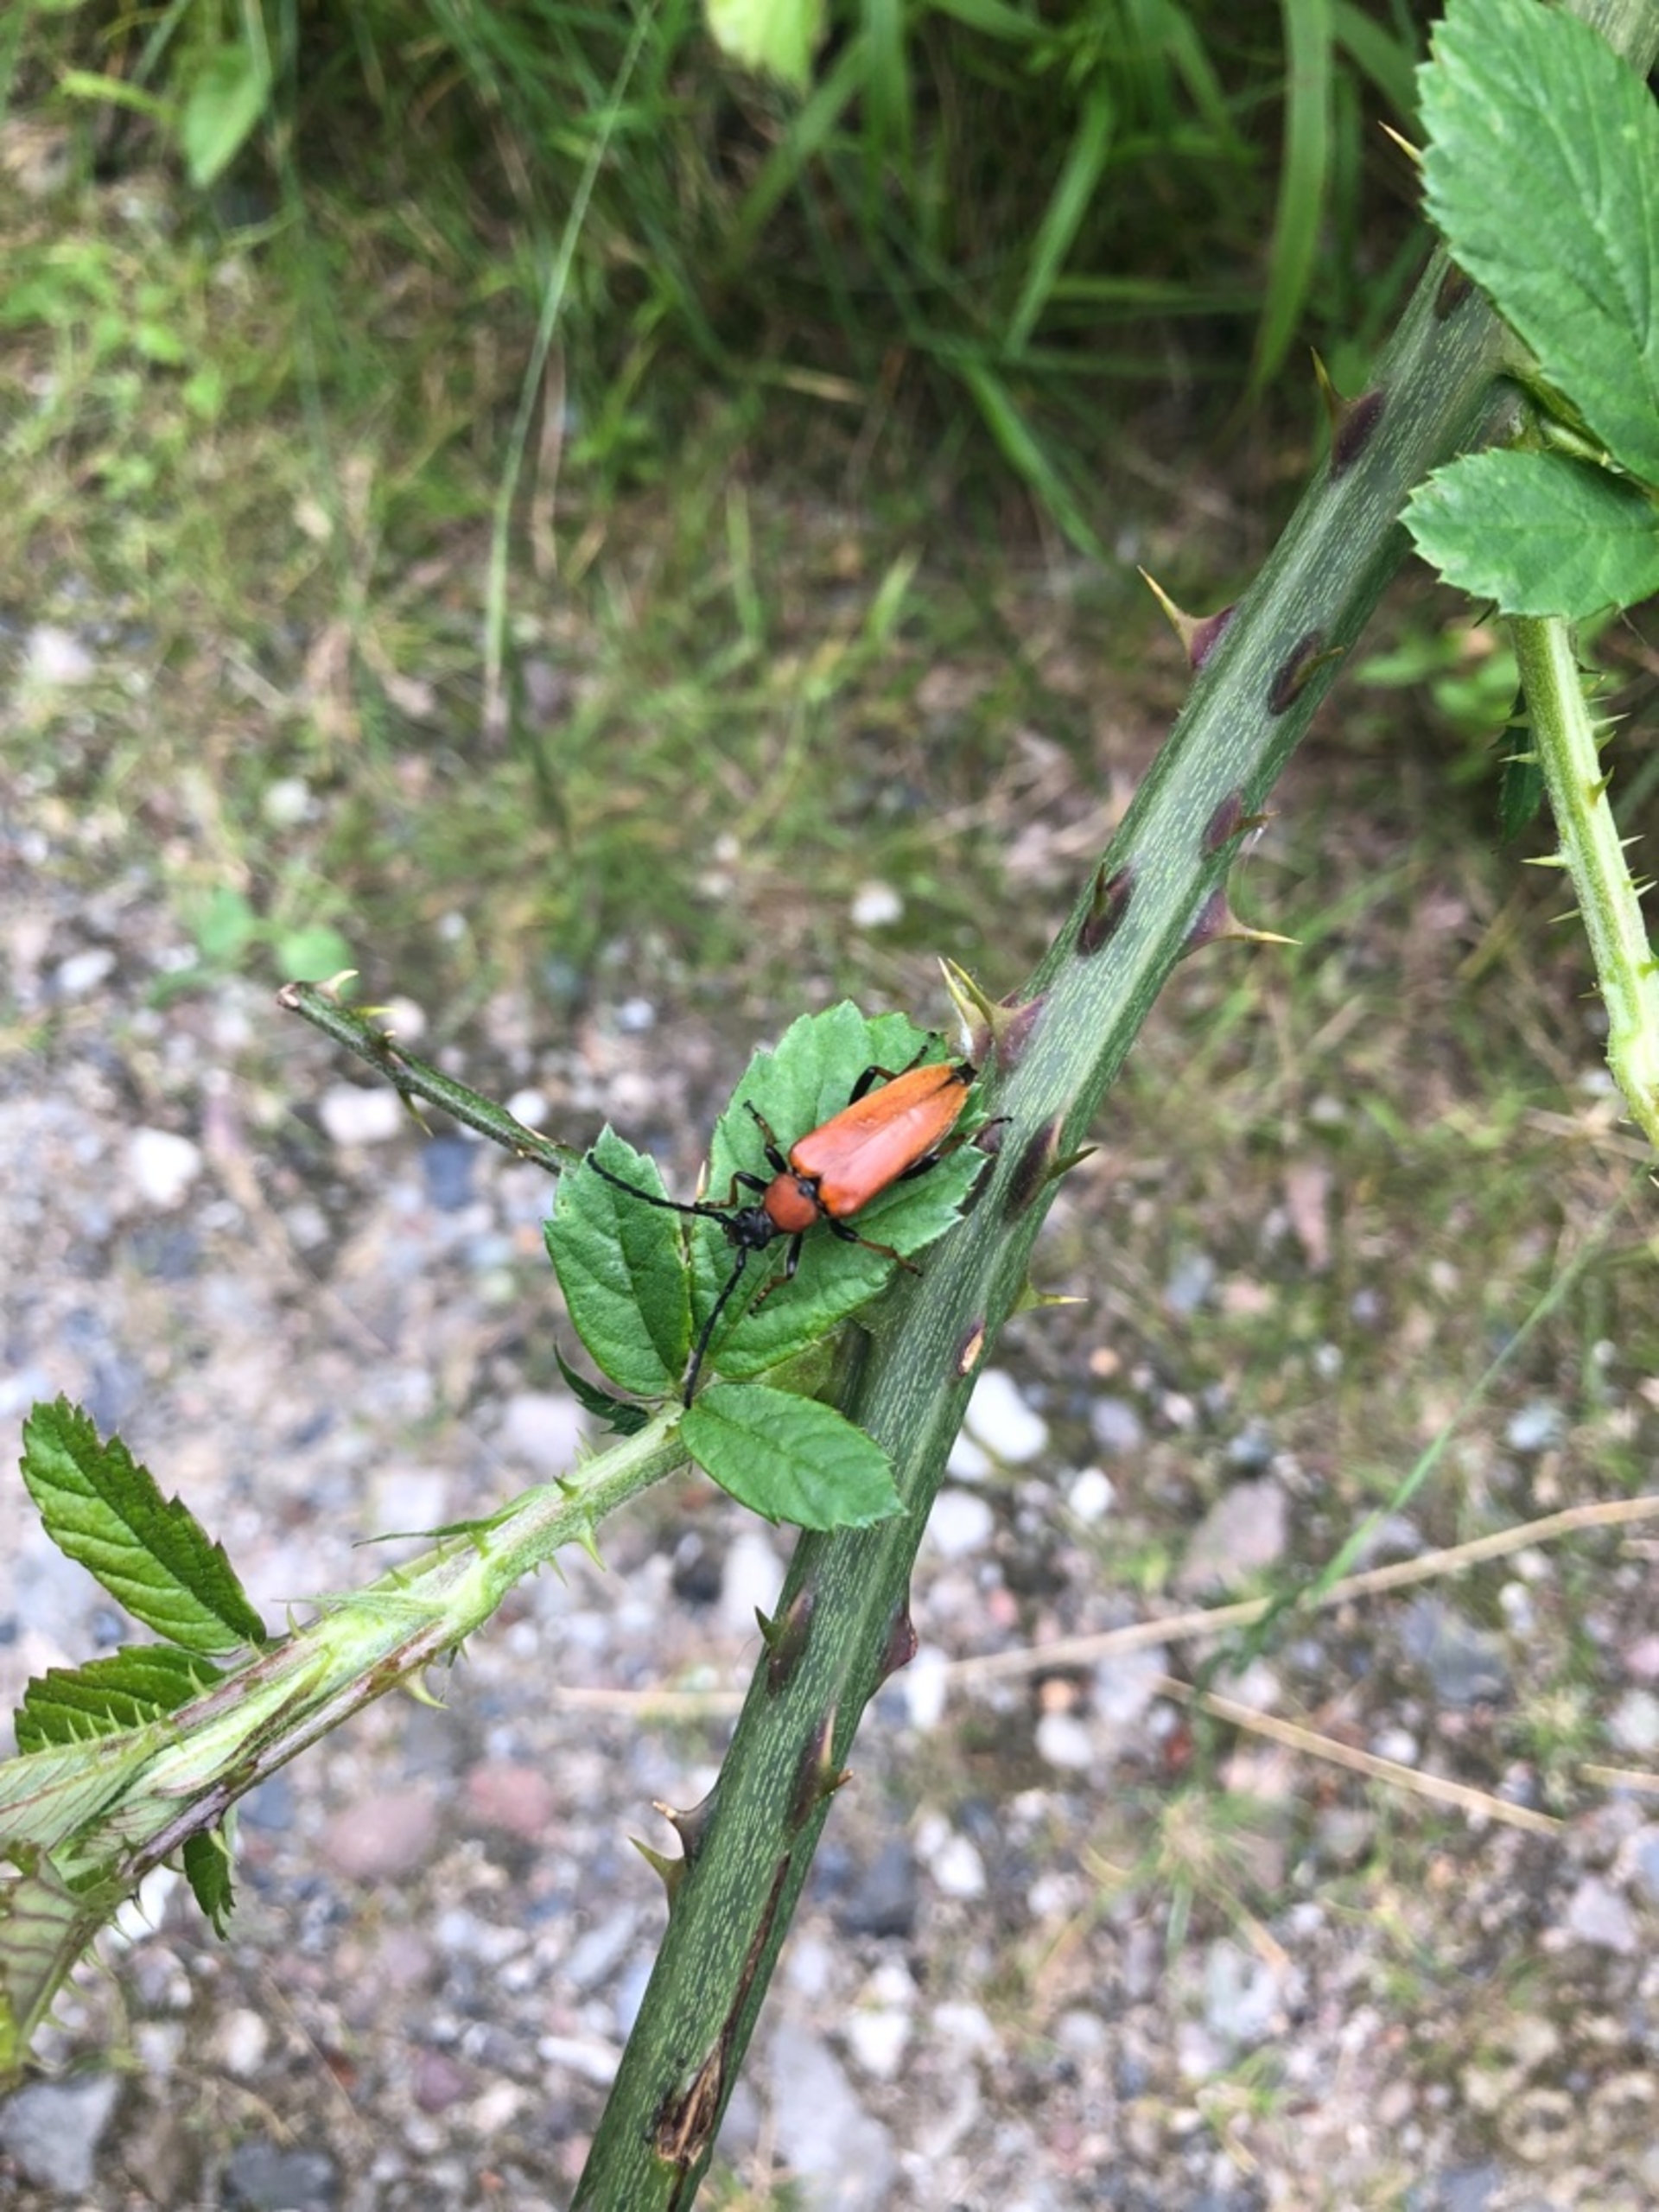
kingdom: Animalia
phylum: Arthropoda
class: Insecta
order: Coleoptera
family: Cerambycidae
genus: Stictoleptura
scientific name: Stictoleptura rubra
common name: Rød blomsterbuk
